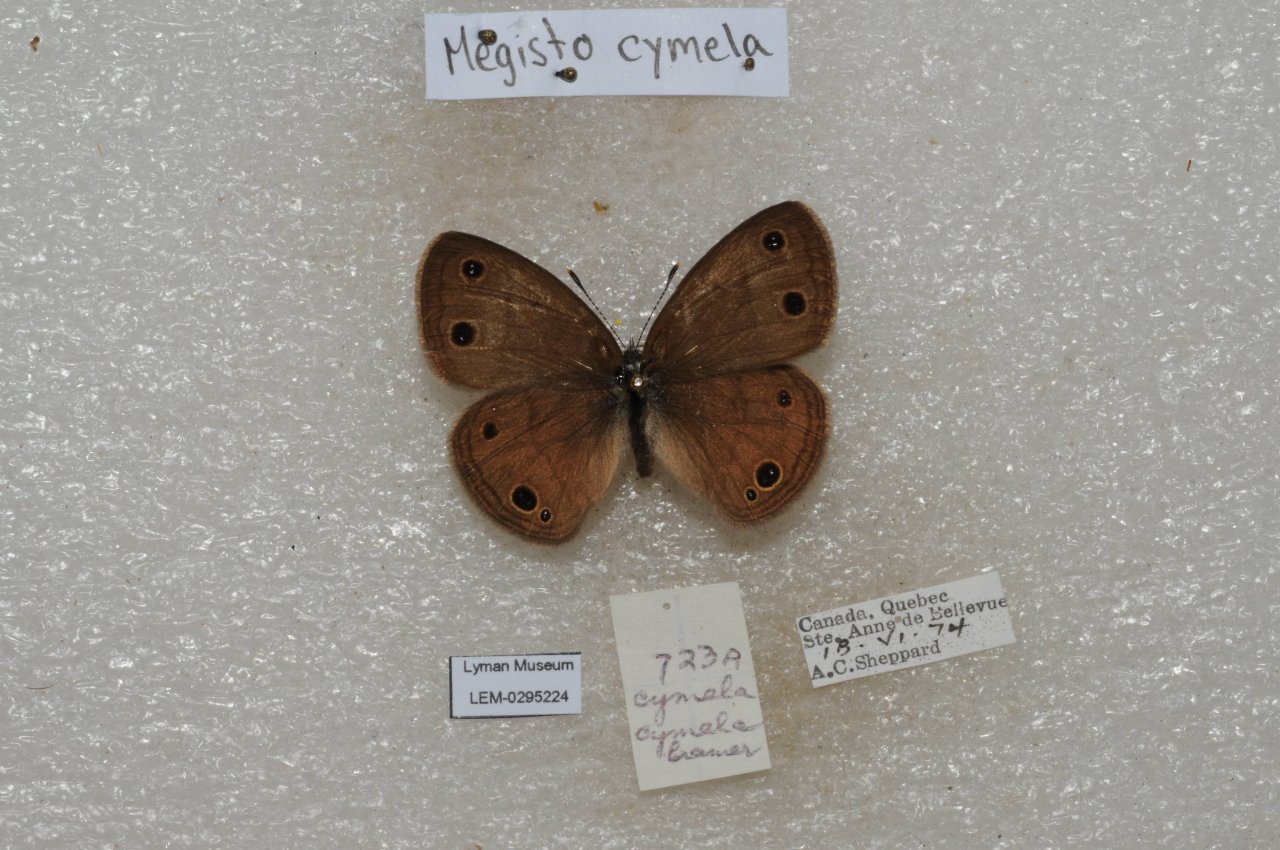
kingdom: Animalia
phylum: Arthropoda
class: Insecta
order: Lepidoptera
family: Nymphalidae
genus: Euptychia
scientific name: Euptychia cymela
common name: Little Wood Satyr
